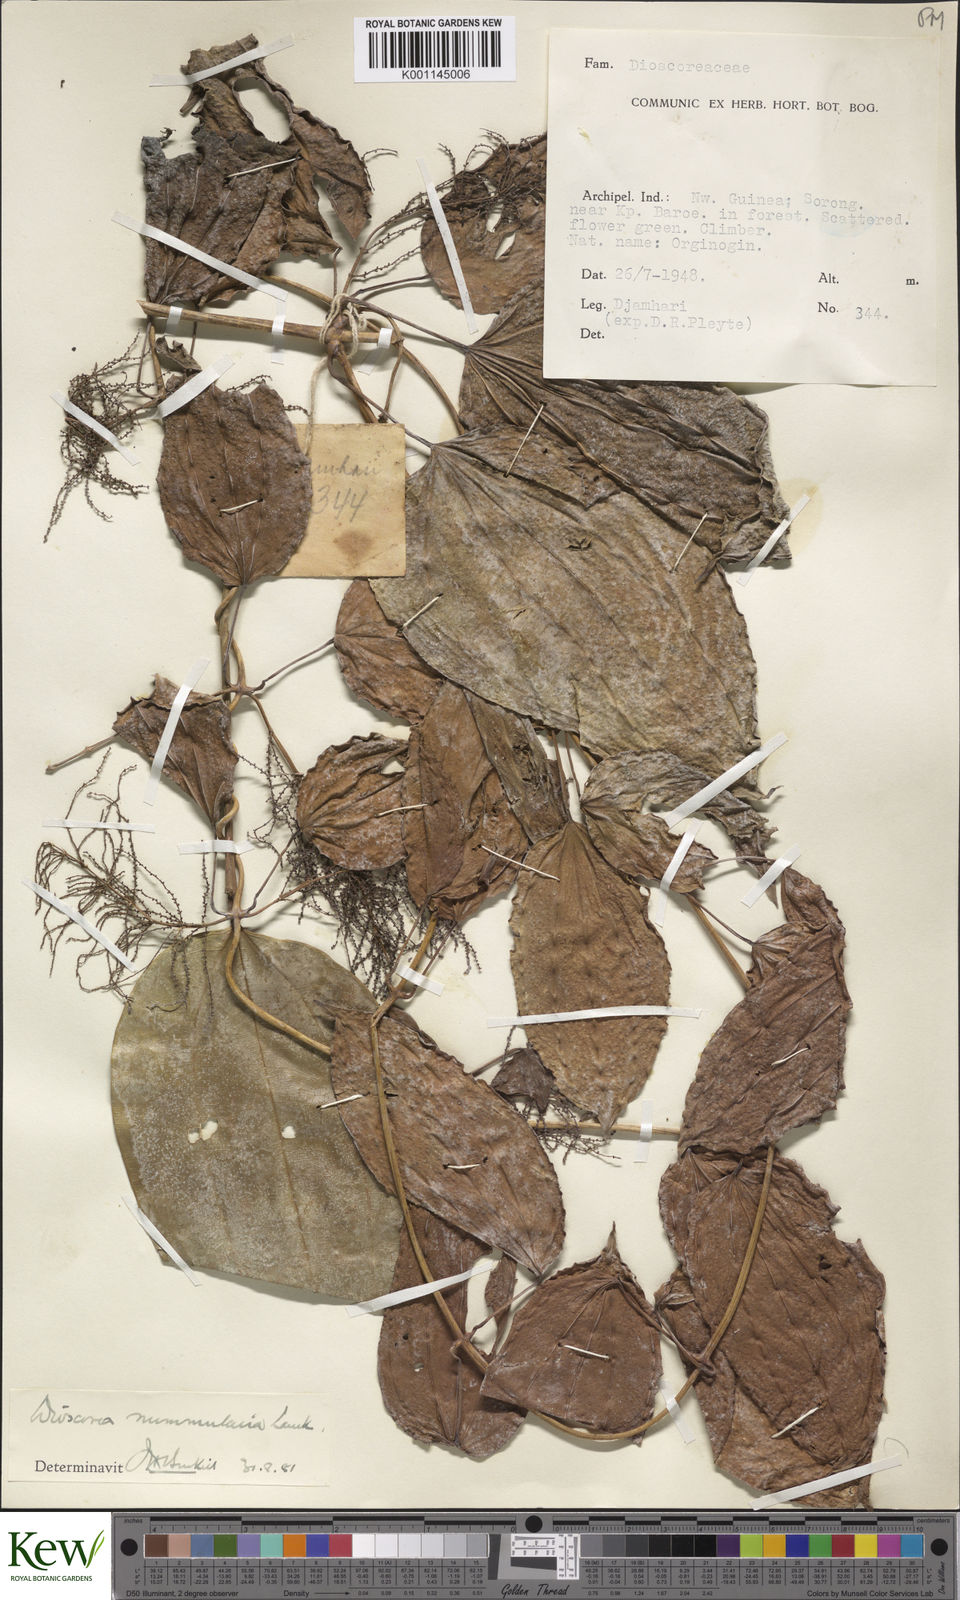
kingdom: Plantae
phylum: Tracheophyta
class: Liliopsida
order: Dioscoreales
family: Dioscoreaceae
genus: Dioscorea
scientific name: Dioscorea nummularia
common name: Pacific yam
